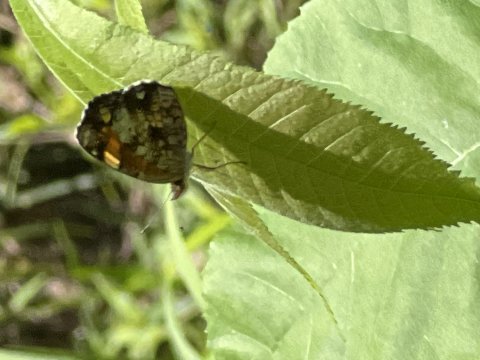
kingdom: Animalia
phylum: Arthropoda
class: Insecta
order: Lepidoptera
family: Nymphalidae
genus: Phyciodes
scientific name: Phyciodes tharos
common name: Pearl Crescent
